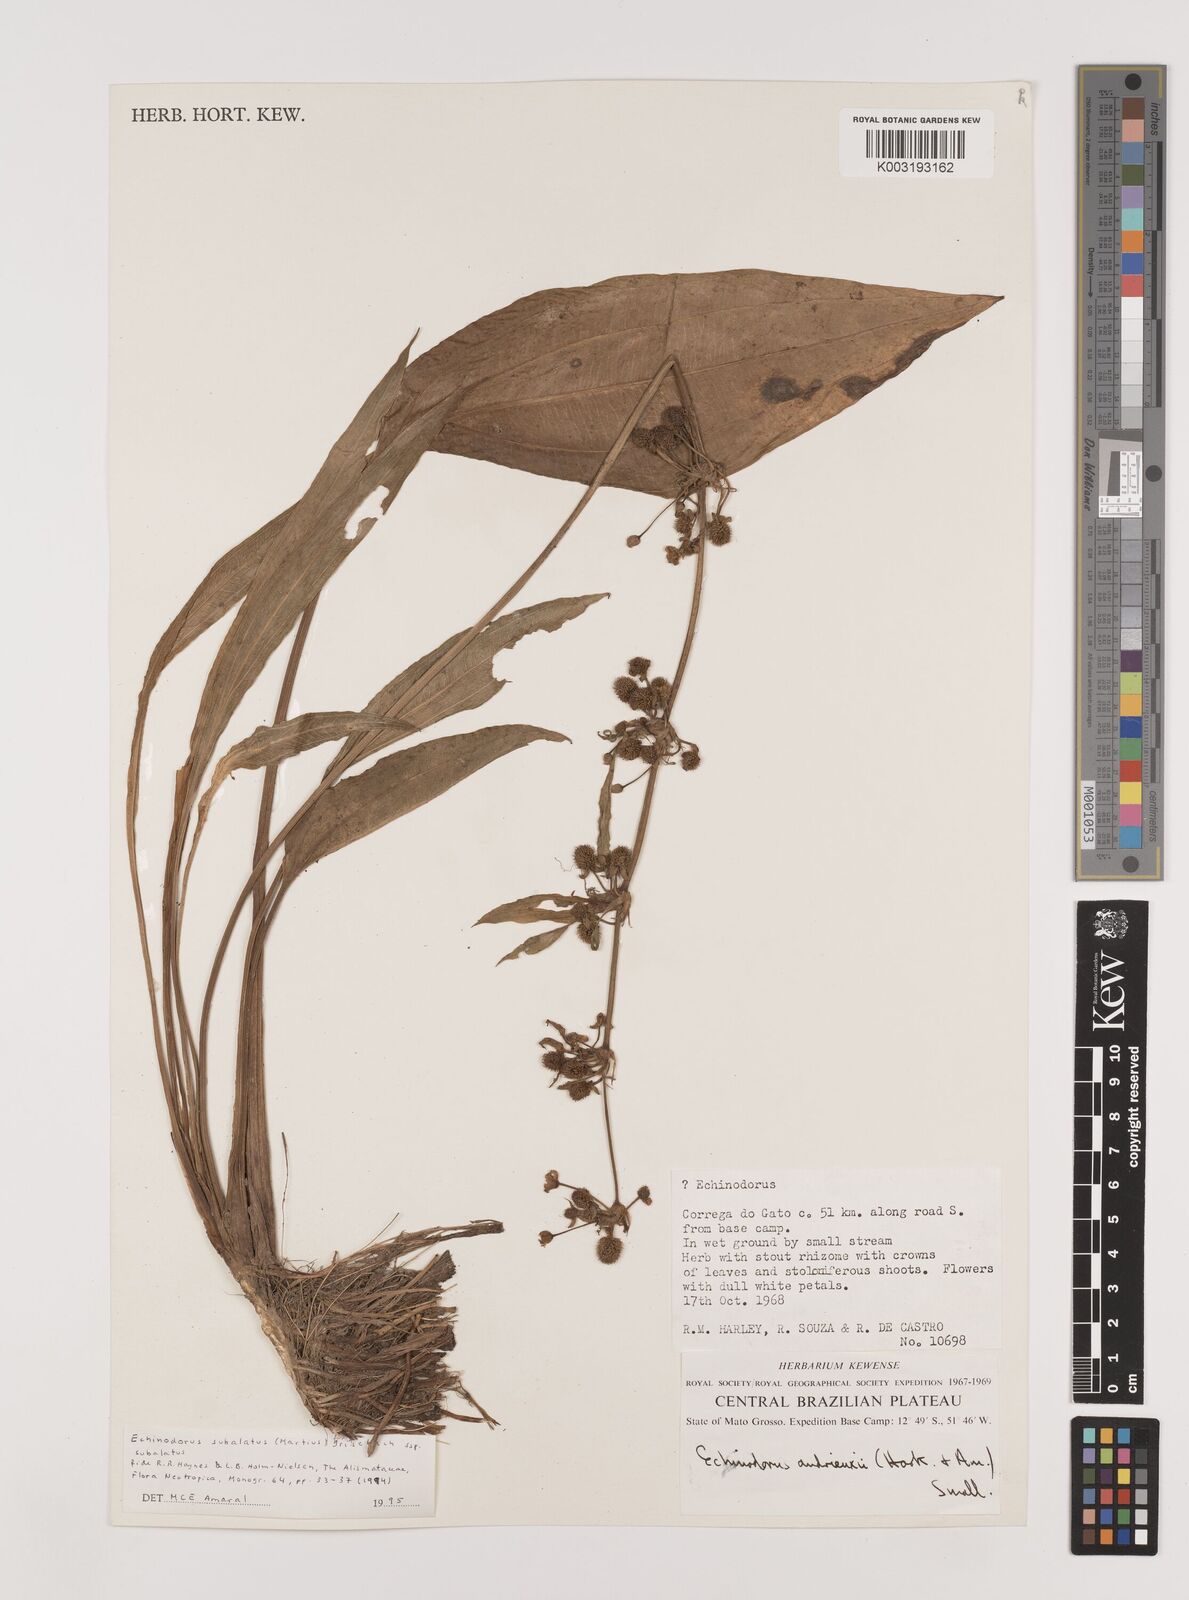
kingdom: Plantae
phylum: Tracheophyta
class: Liliopsida
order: Alismatales
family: Alismataceae
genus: Echinodorus
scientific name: Echinodorus
